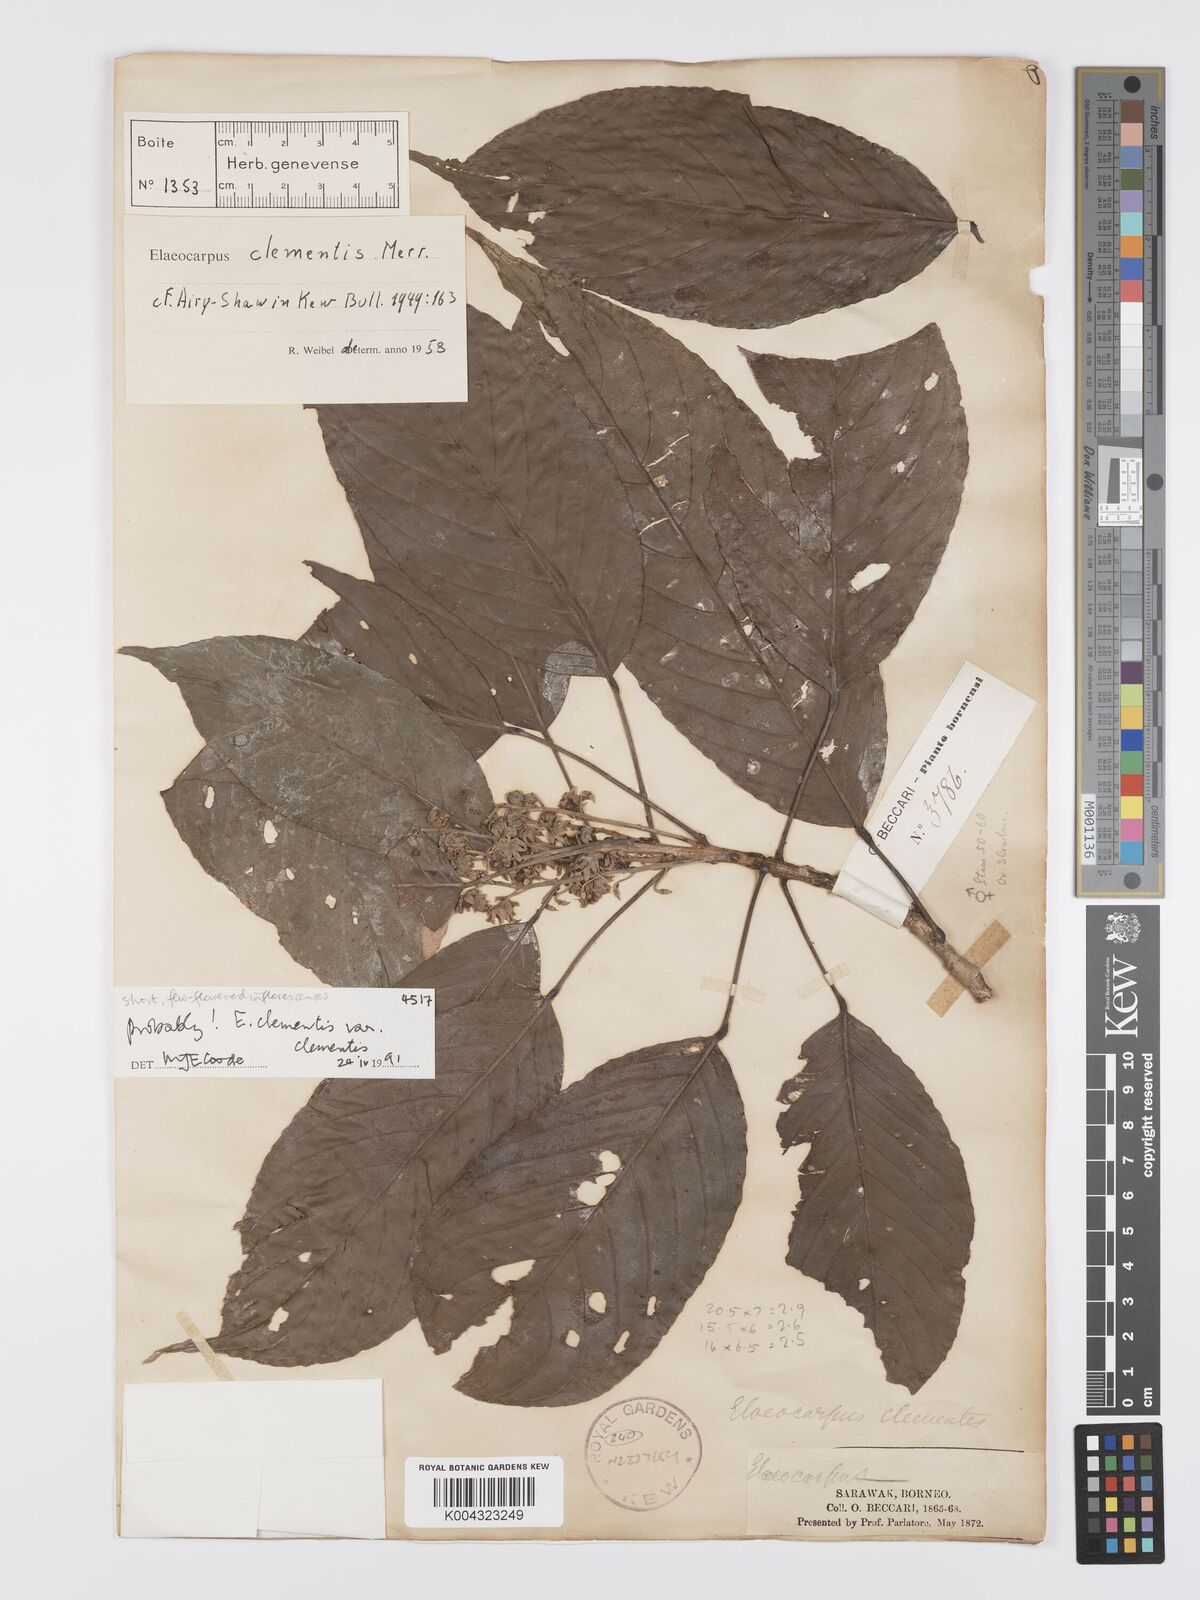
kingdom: Plantae
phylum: Tracheophyta
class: Magnoliopsida
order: Oxalidales
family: Elaeocarpaceae
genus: Elaeocarpus
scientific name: Elaeocarpus clementis
